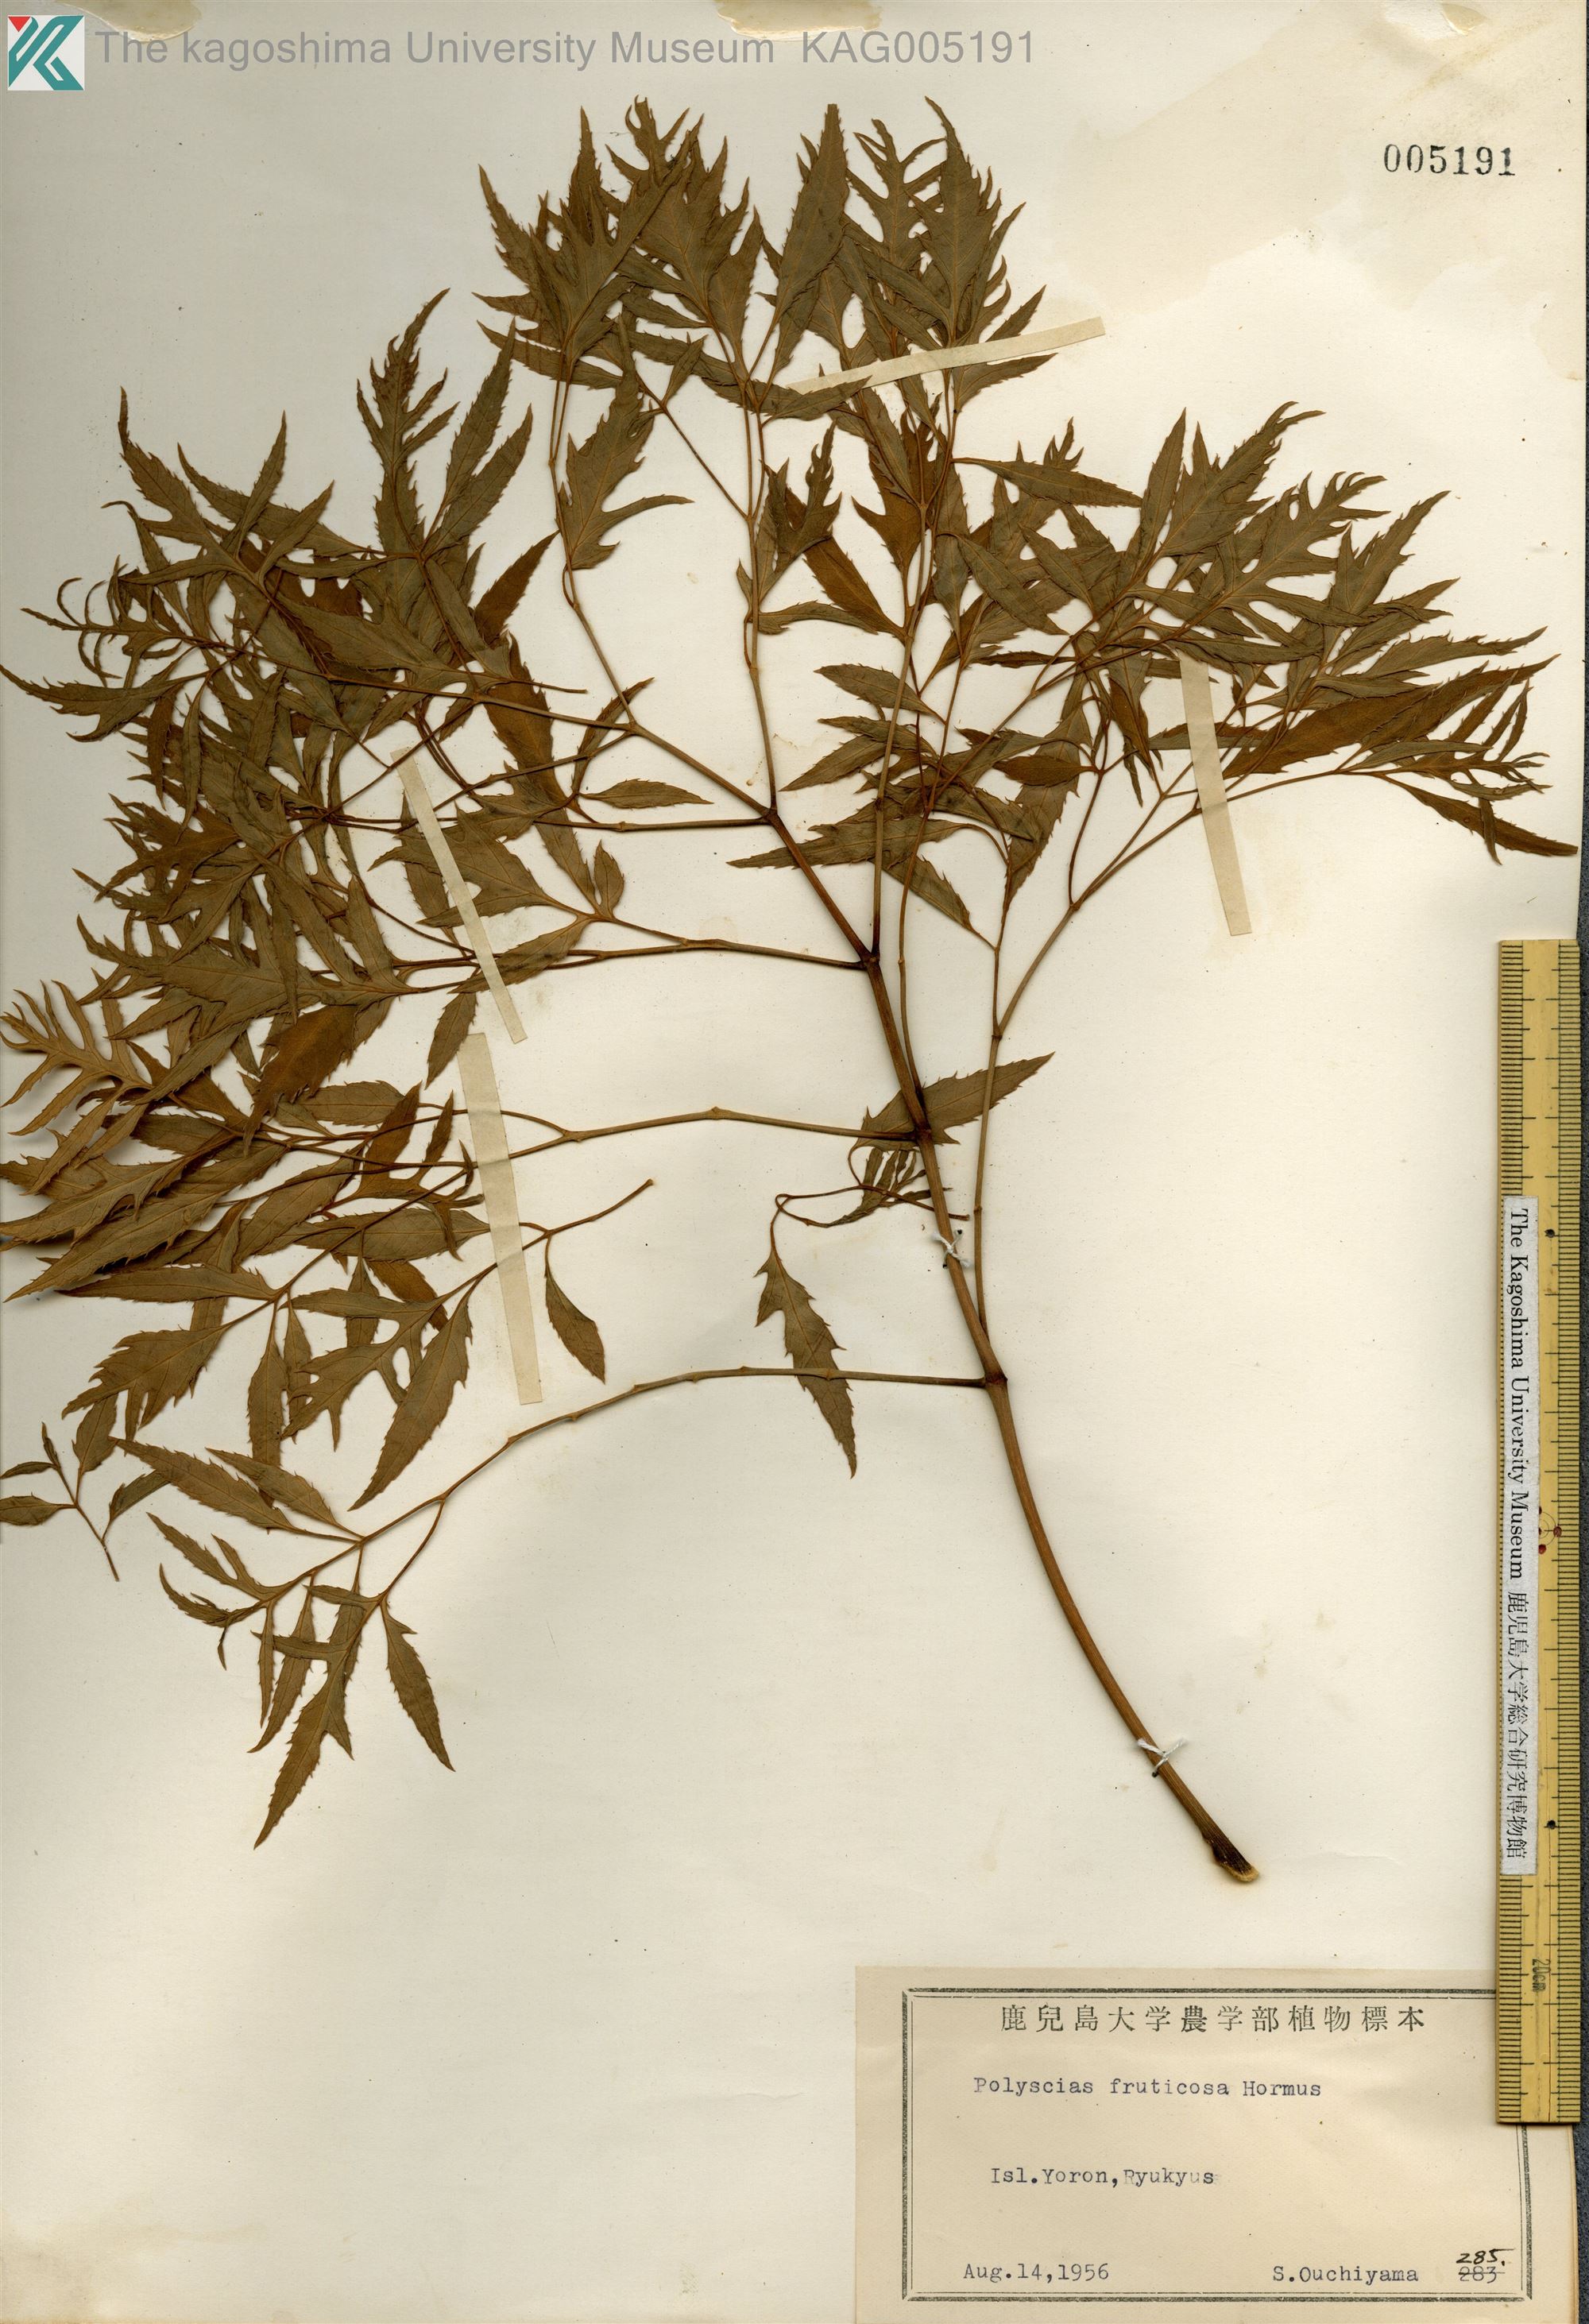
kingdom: Plantae
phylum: Tracheophyta
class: Magnoliopsida
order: Apiales
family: Araliaceae
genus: Polyscias
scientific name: Polyscias fruticosa
